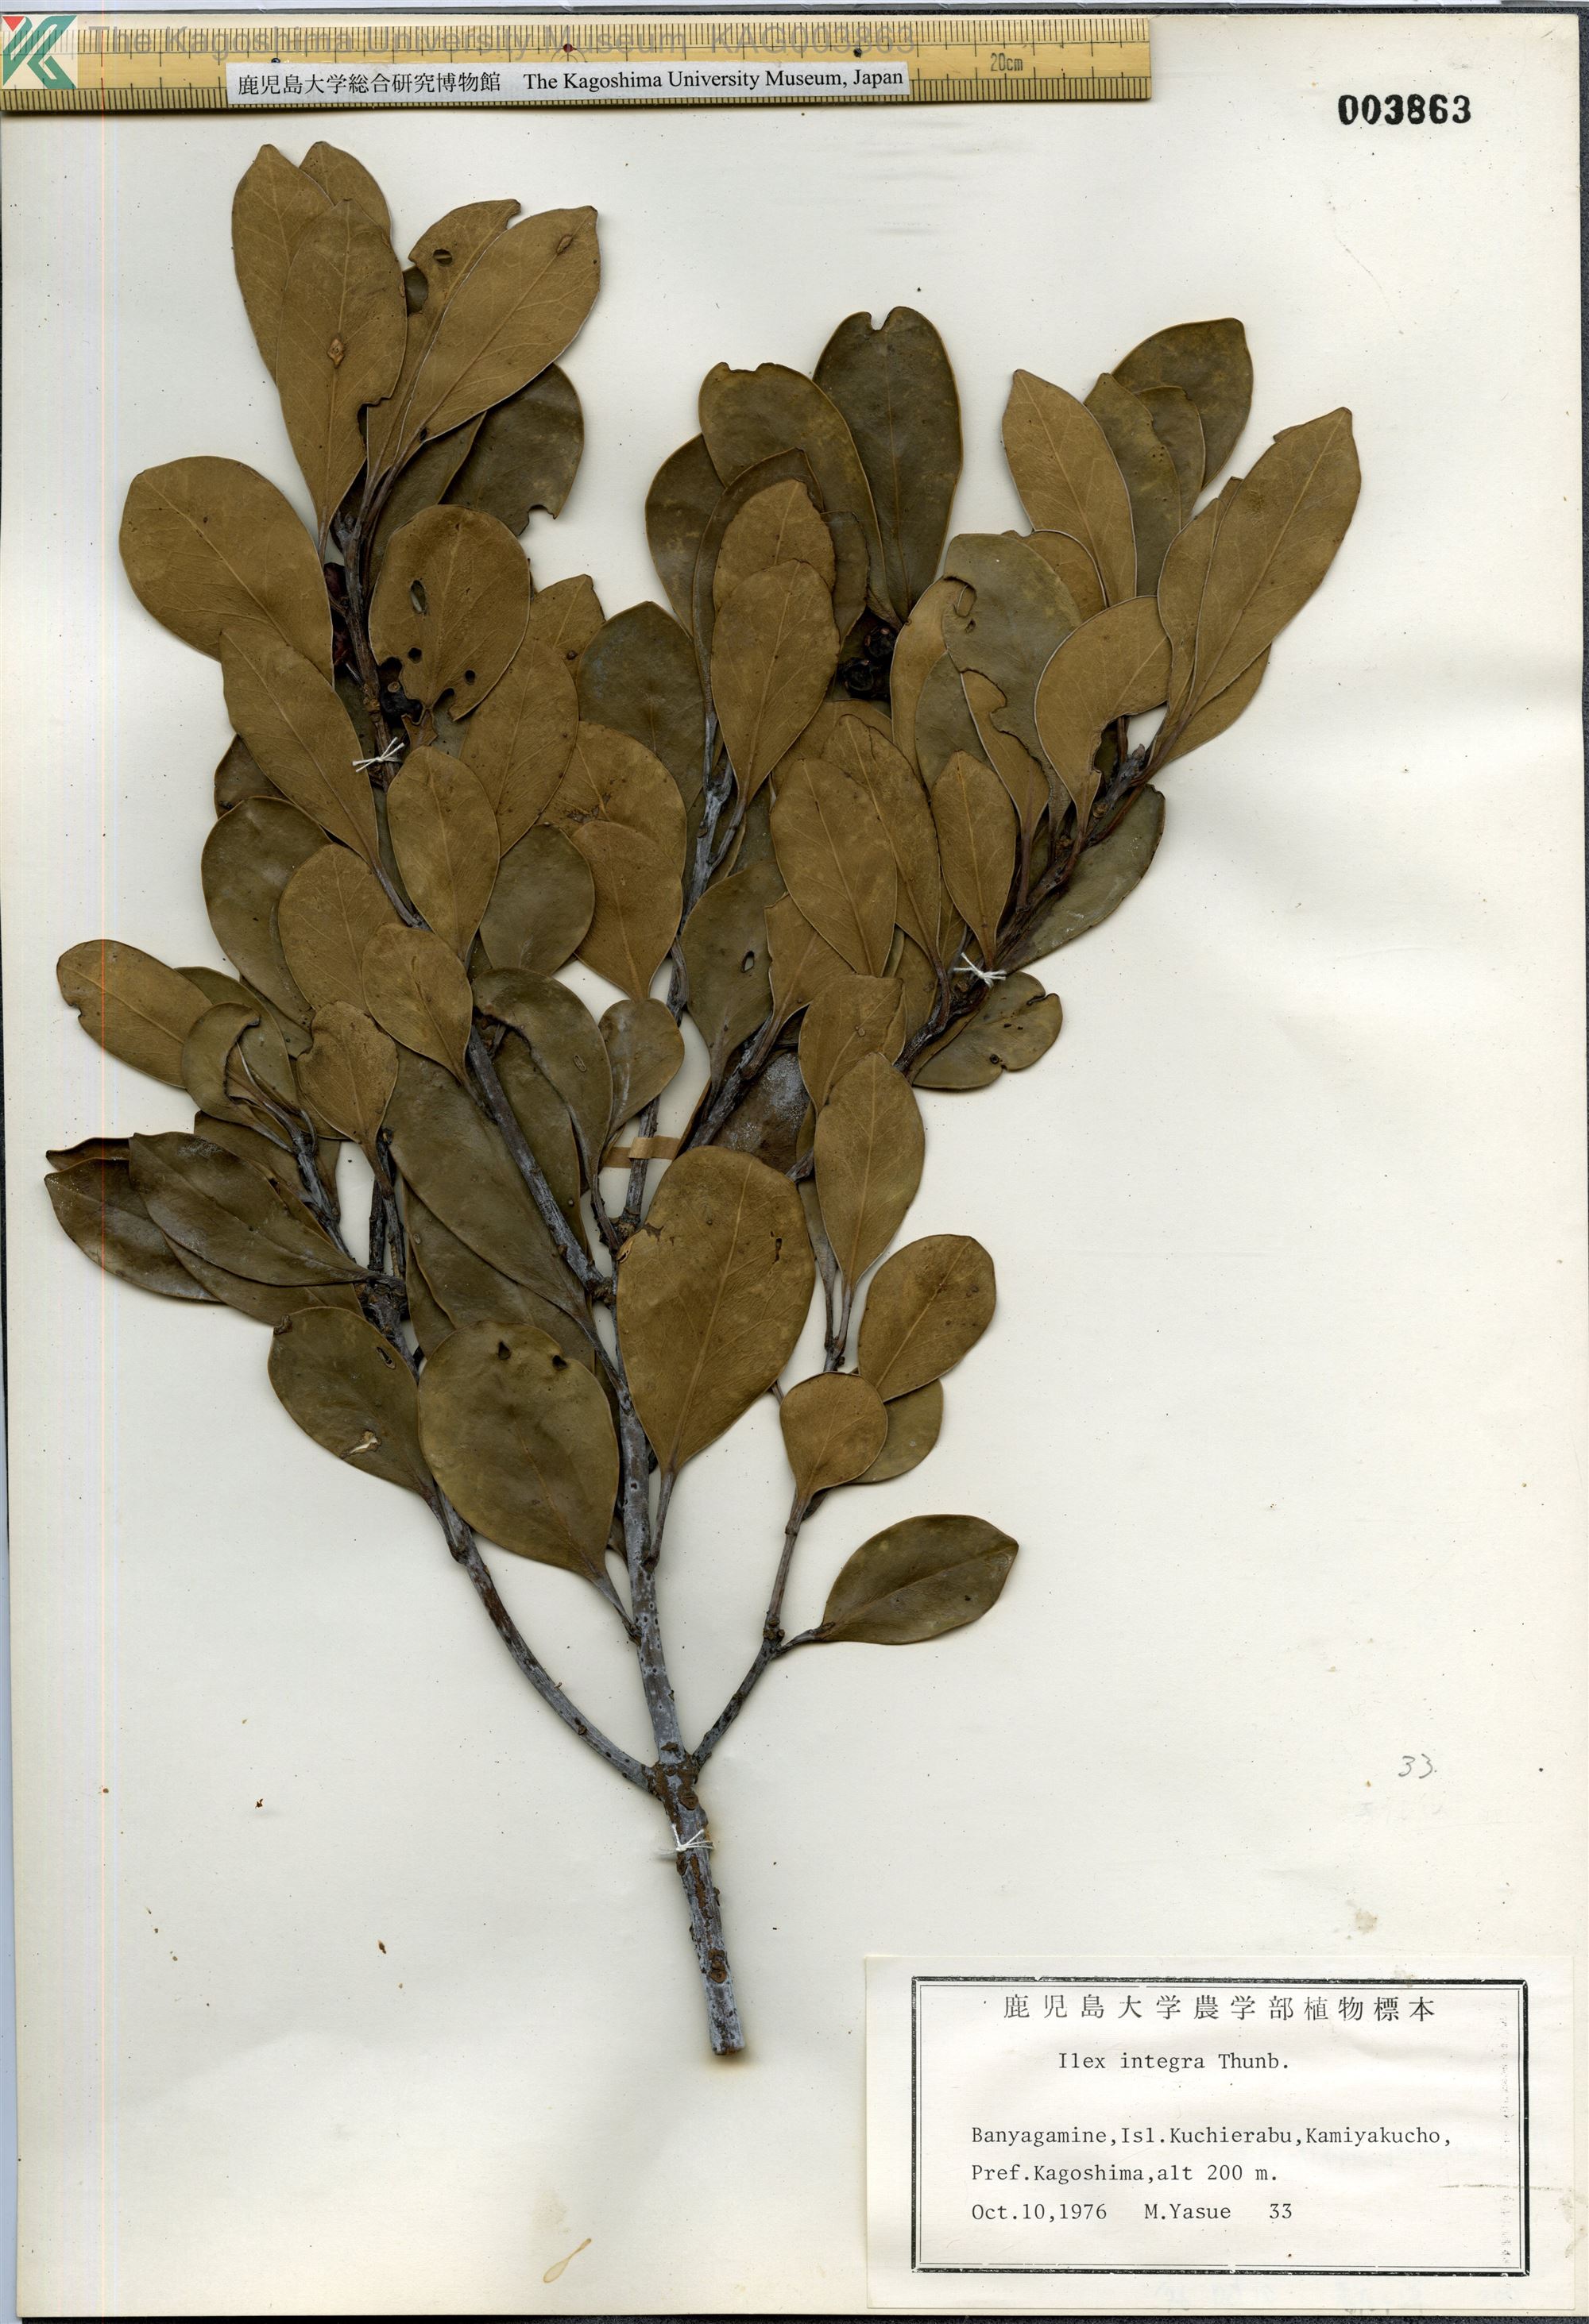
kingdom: Plantae
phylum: Tracheophyta
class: Magnoliopsida
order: Aquifoliales
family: Aquifoliaceae
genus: Ilex
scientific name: Ilex integra
